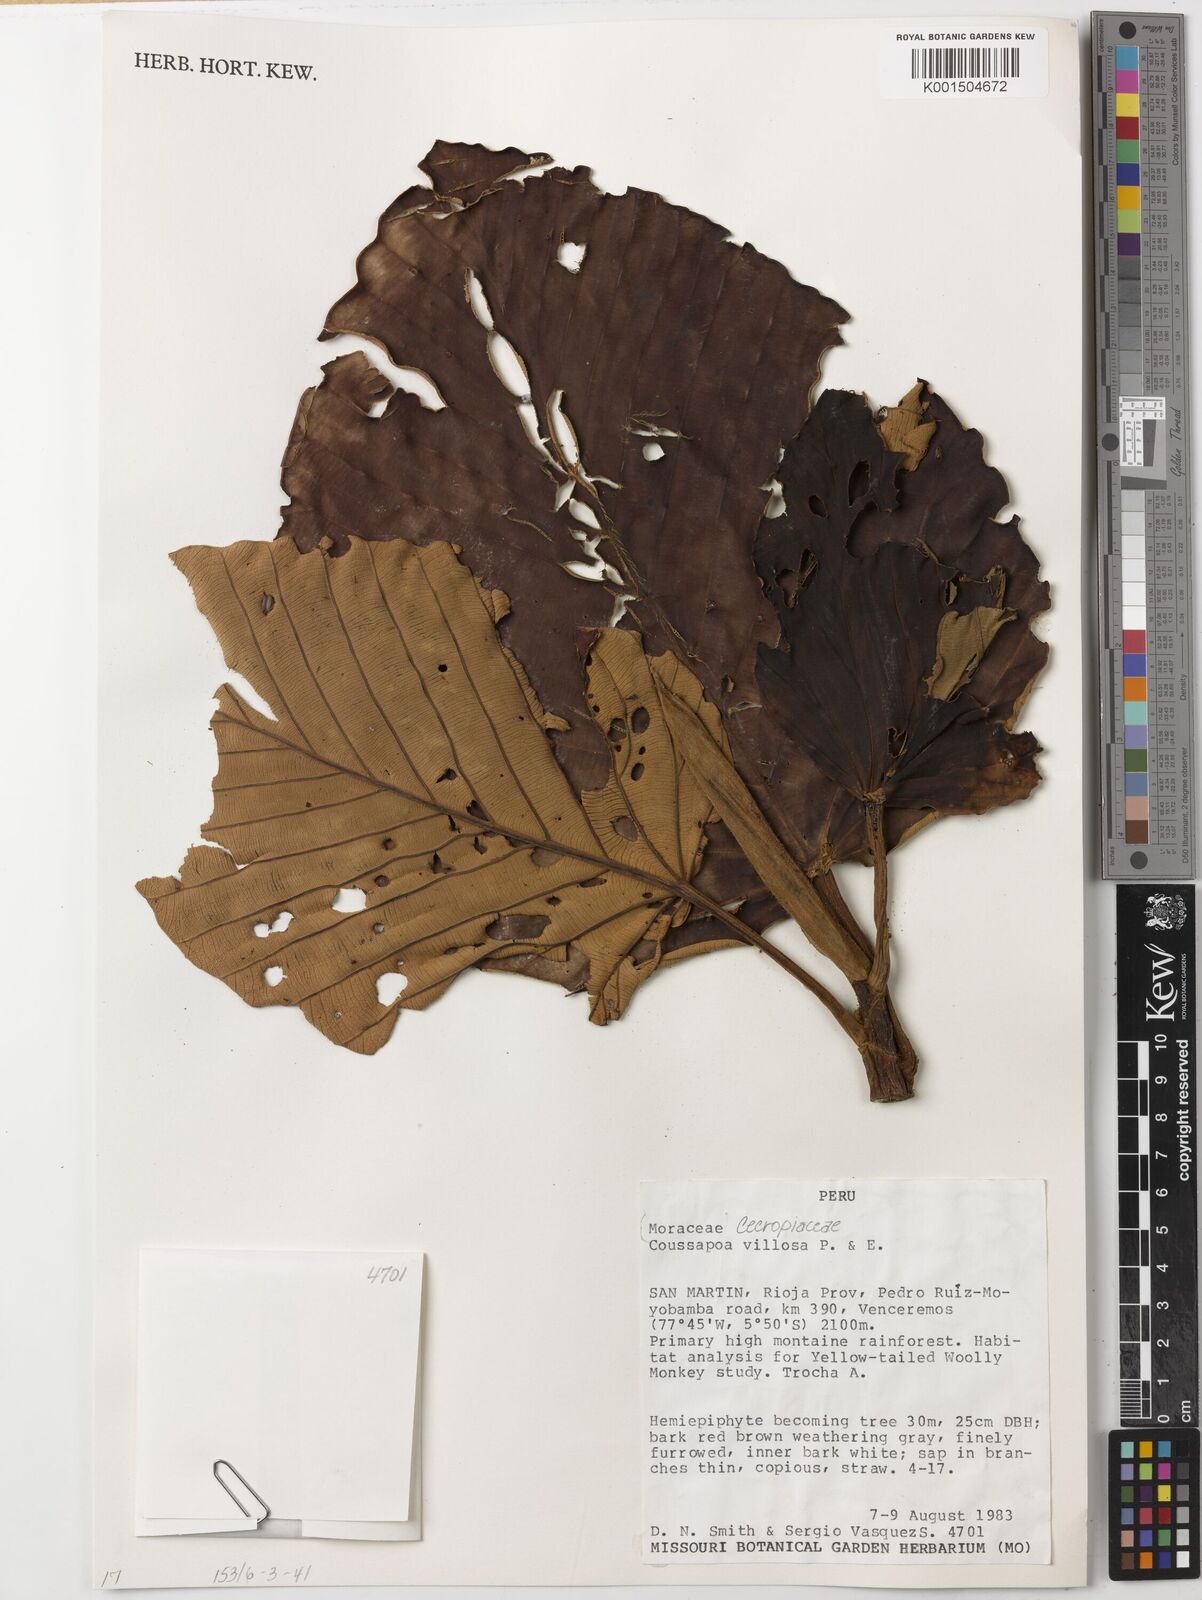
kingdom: Plantae
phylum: Tracheophyta
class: Magnoliopsida
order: Rosales
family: Urticaceae
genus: Coussapoa
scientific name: Coussapoa villosa
